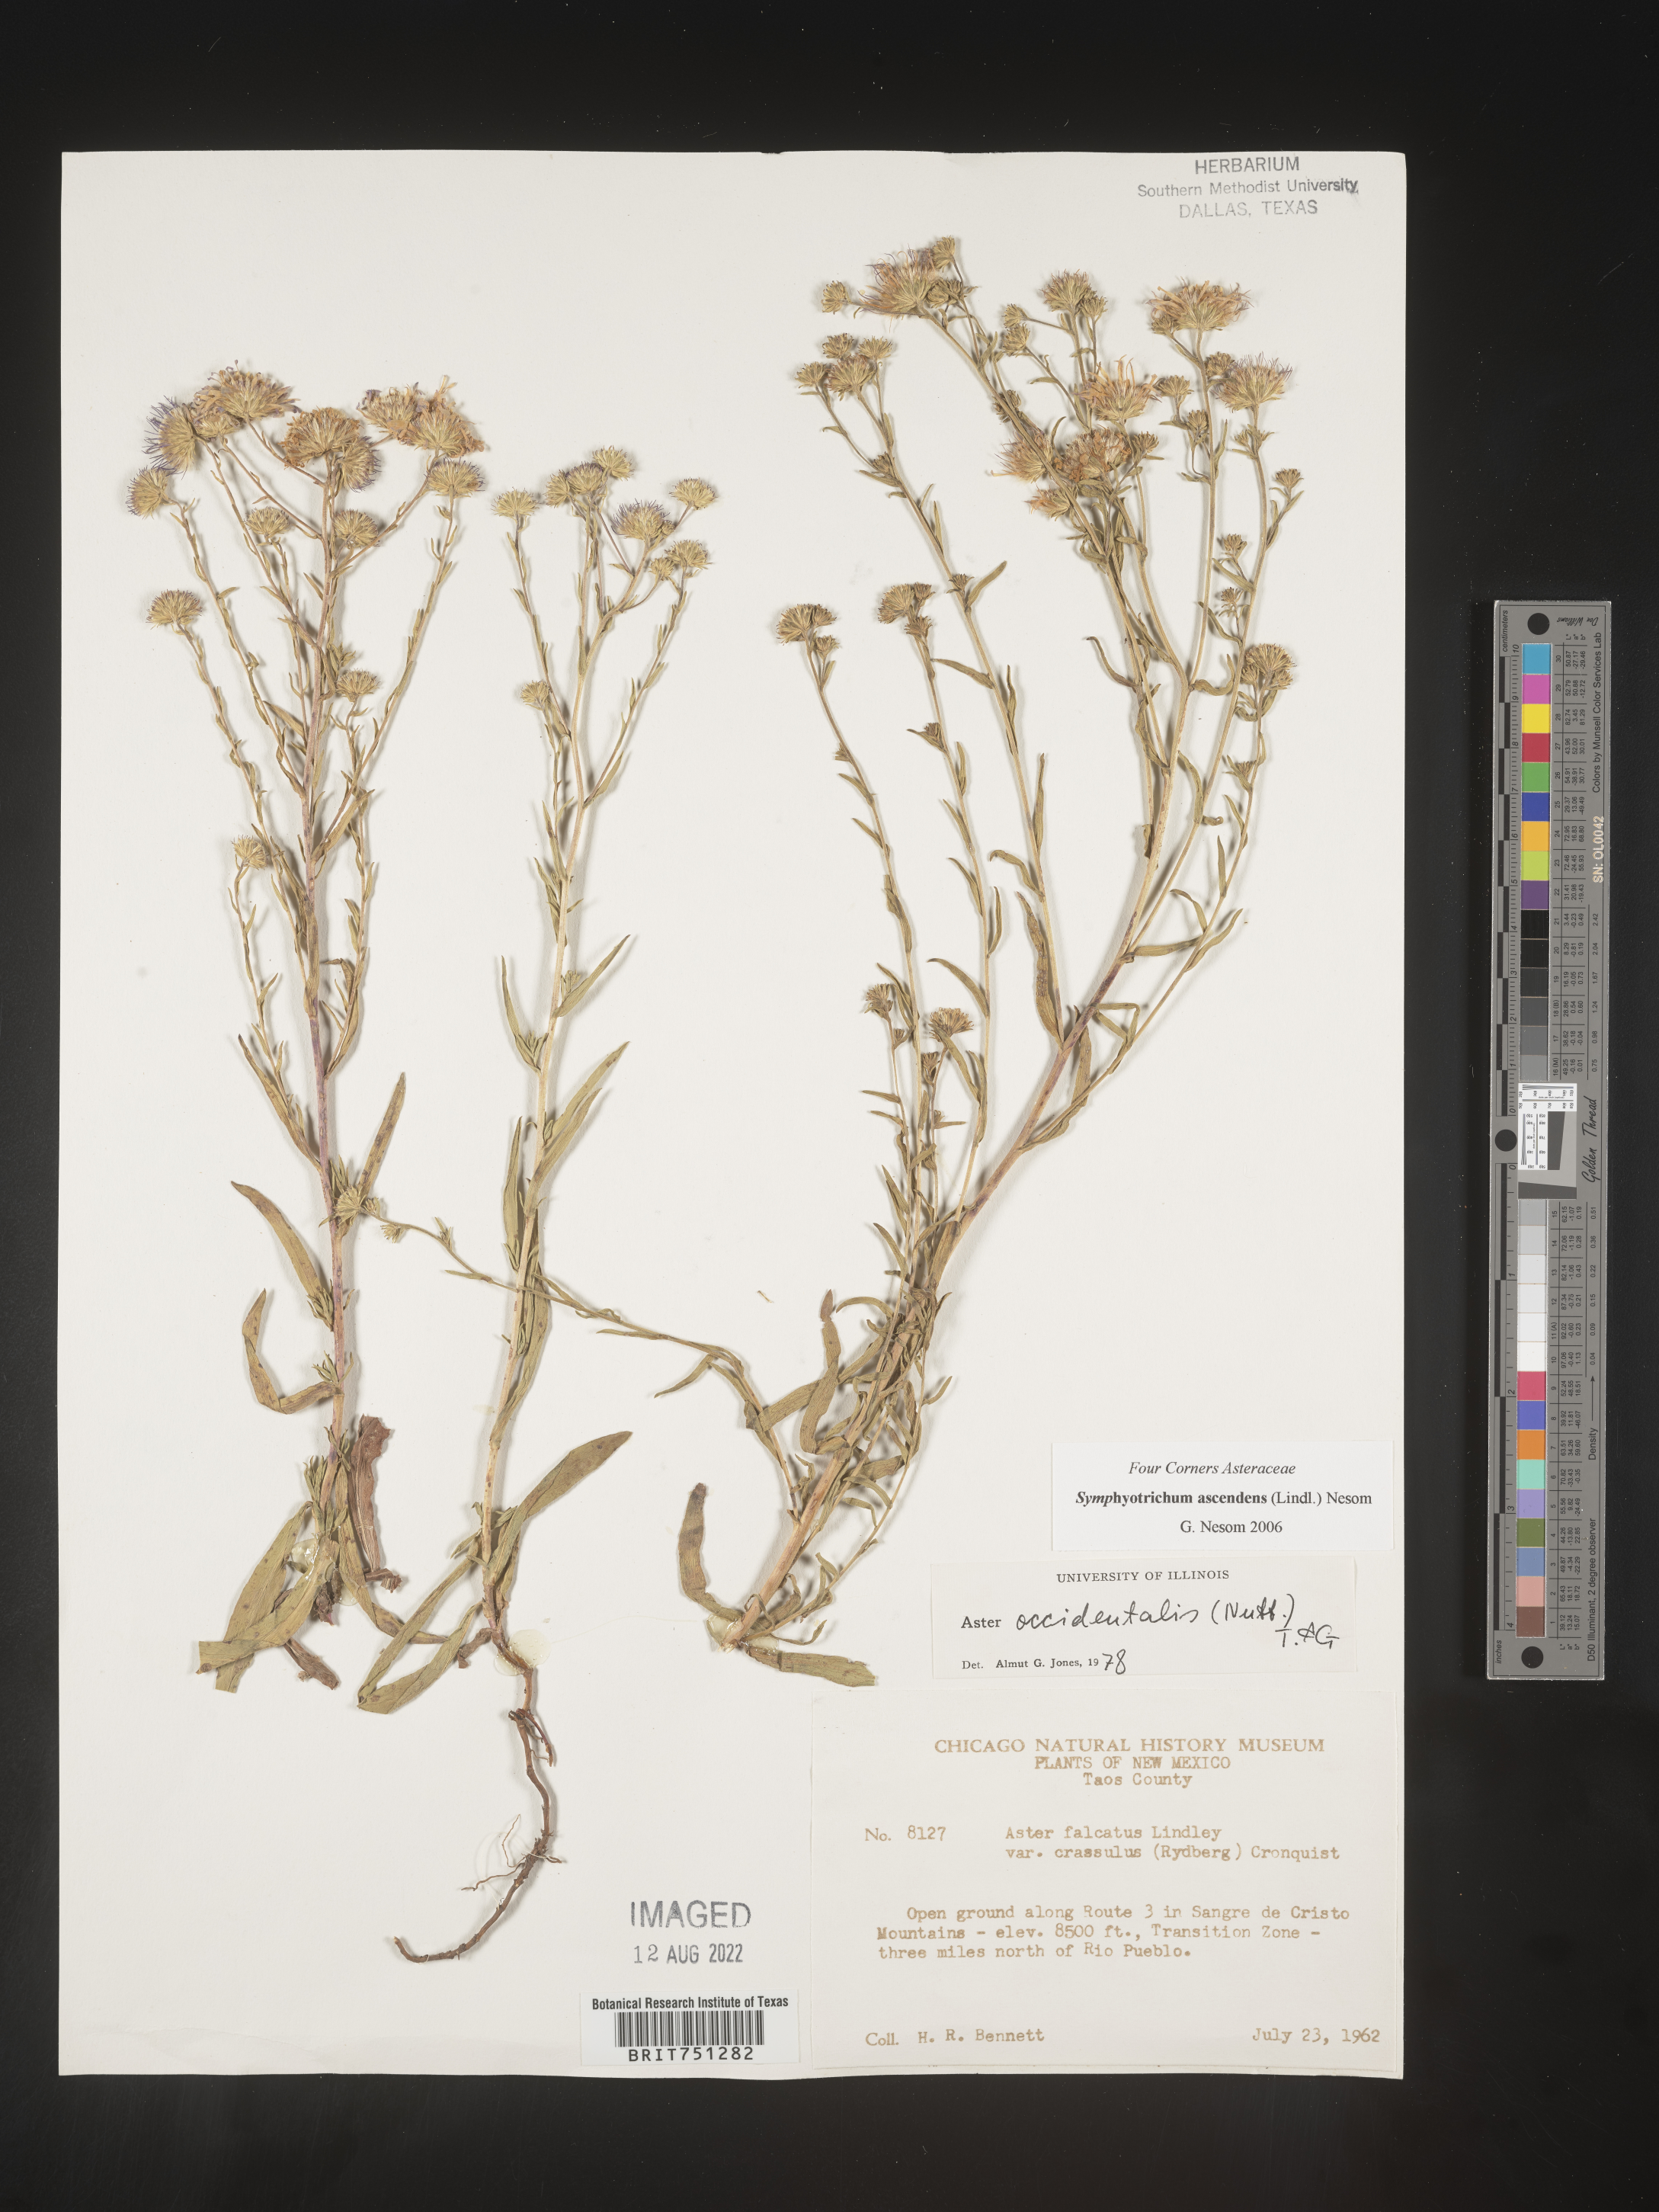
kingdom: Plantae
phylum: Tracheophyta
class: Magnoliopsida
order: Asterales
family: Asteraceae
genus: Symphyotrichum
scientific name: Symphyotrichum ascendens
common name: Intermountain aster
